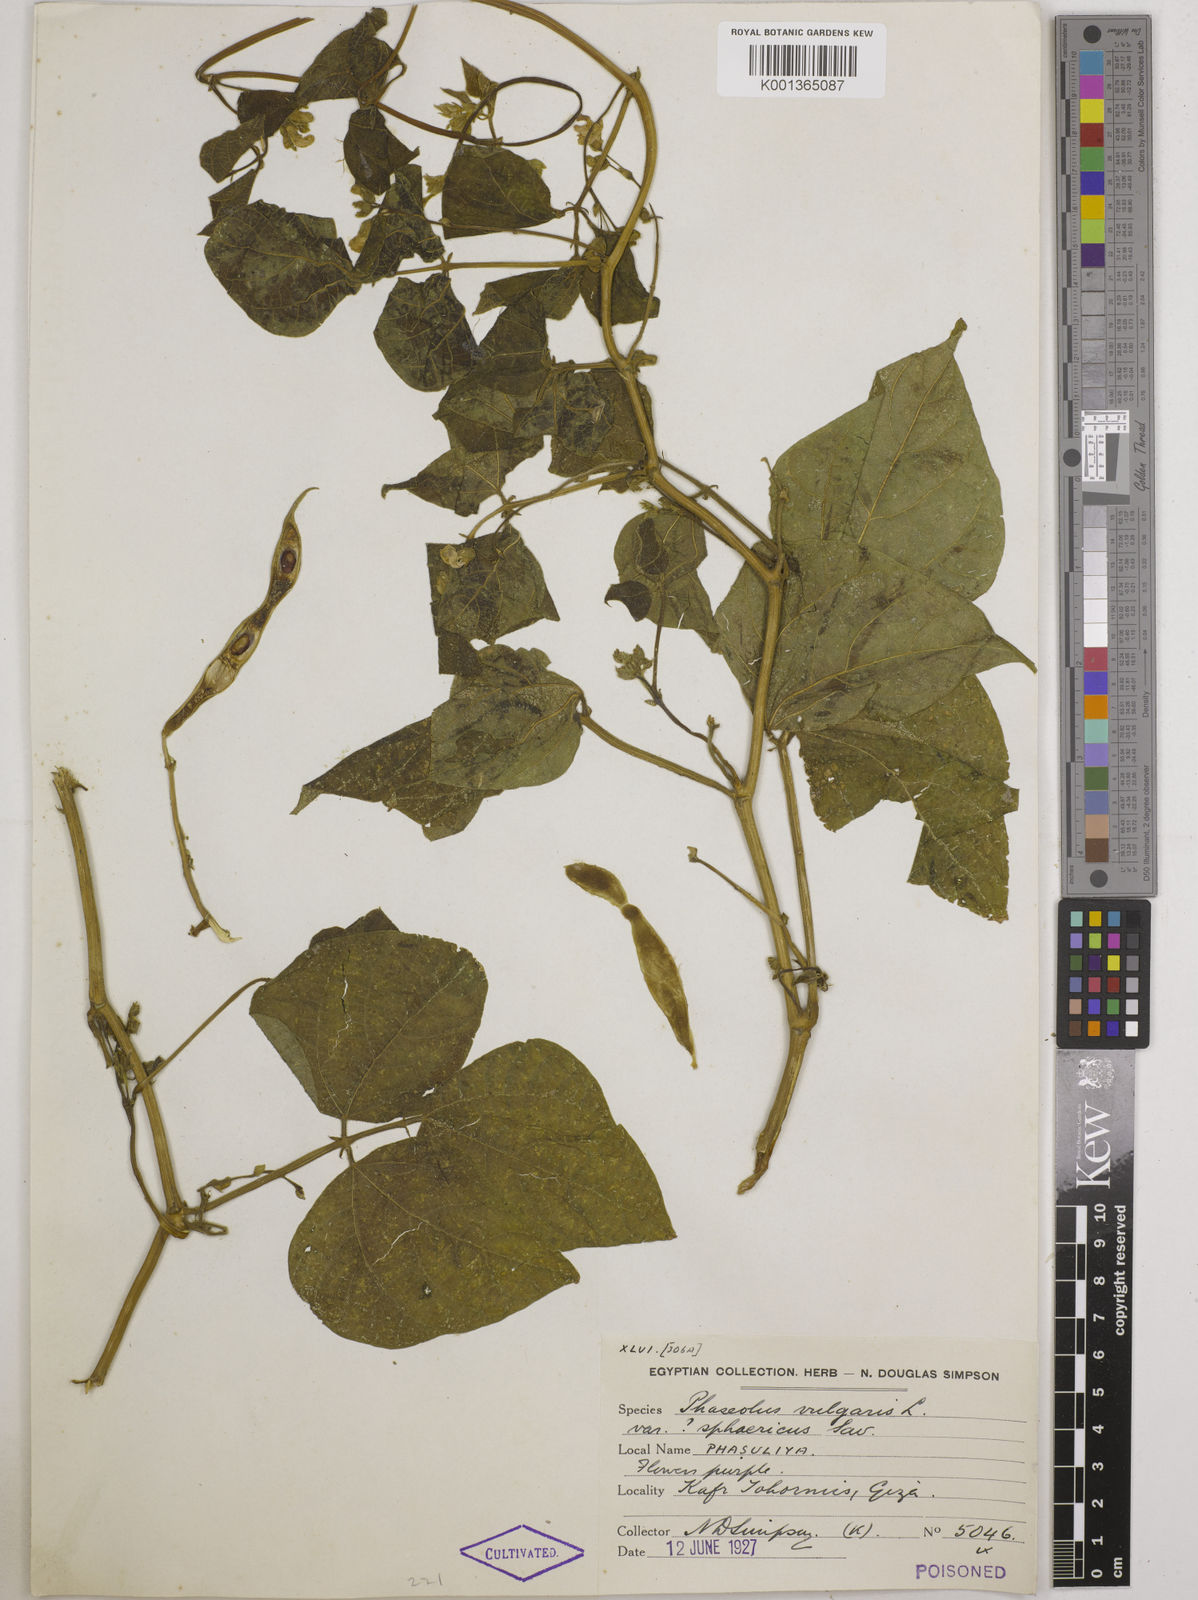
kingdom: Plantae
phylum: Tracheophyta
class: Magnoliopsida
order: Fabales
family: Fabaceae
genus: Phaseolus
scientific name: Phaseolus vulgaris
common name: Bean
